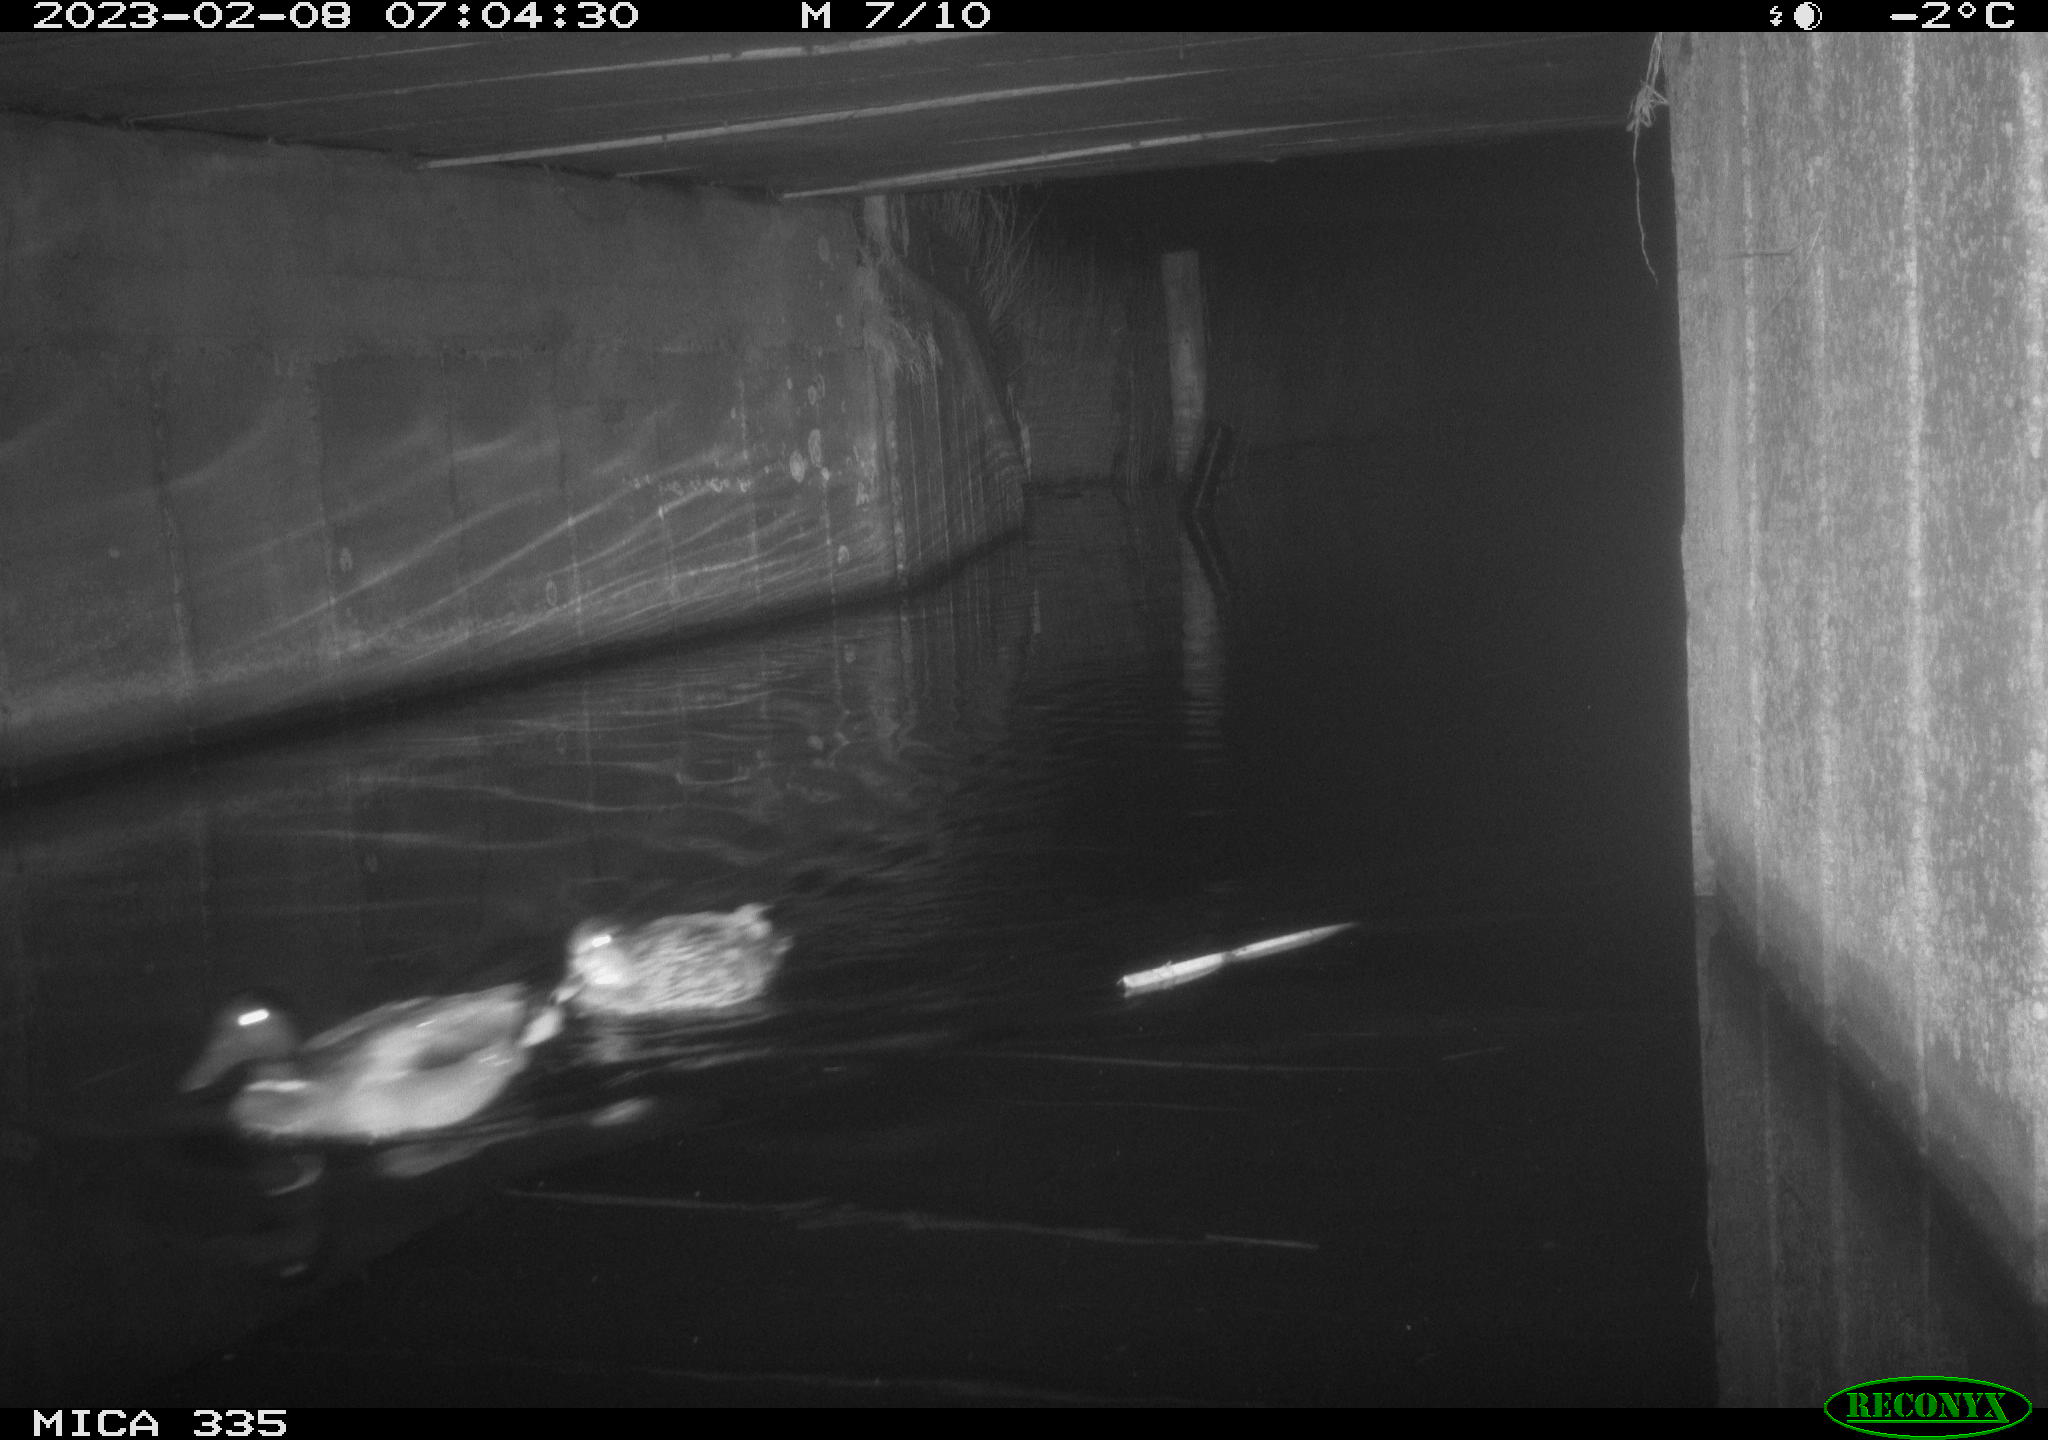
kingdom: Animalia
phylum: Chordata
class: Aves
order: Anseriformes
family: Anatidae
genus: Anas
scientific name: Anas
